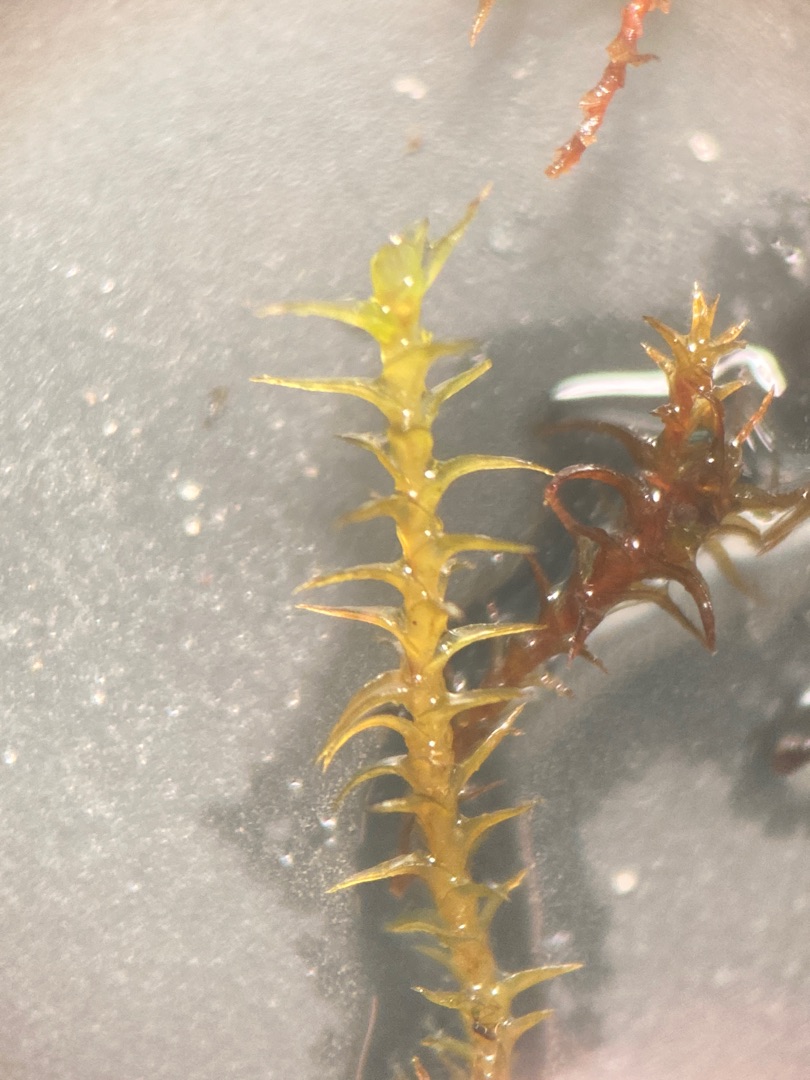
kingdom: Plantae
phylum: Bryophyta
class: Bryopsida
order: Pottiales
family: Pottiaceae
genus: Geheebia
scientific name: Geheebia fallax
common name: Variabel kalktuemos
